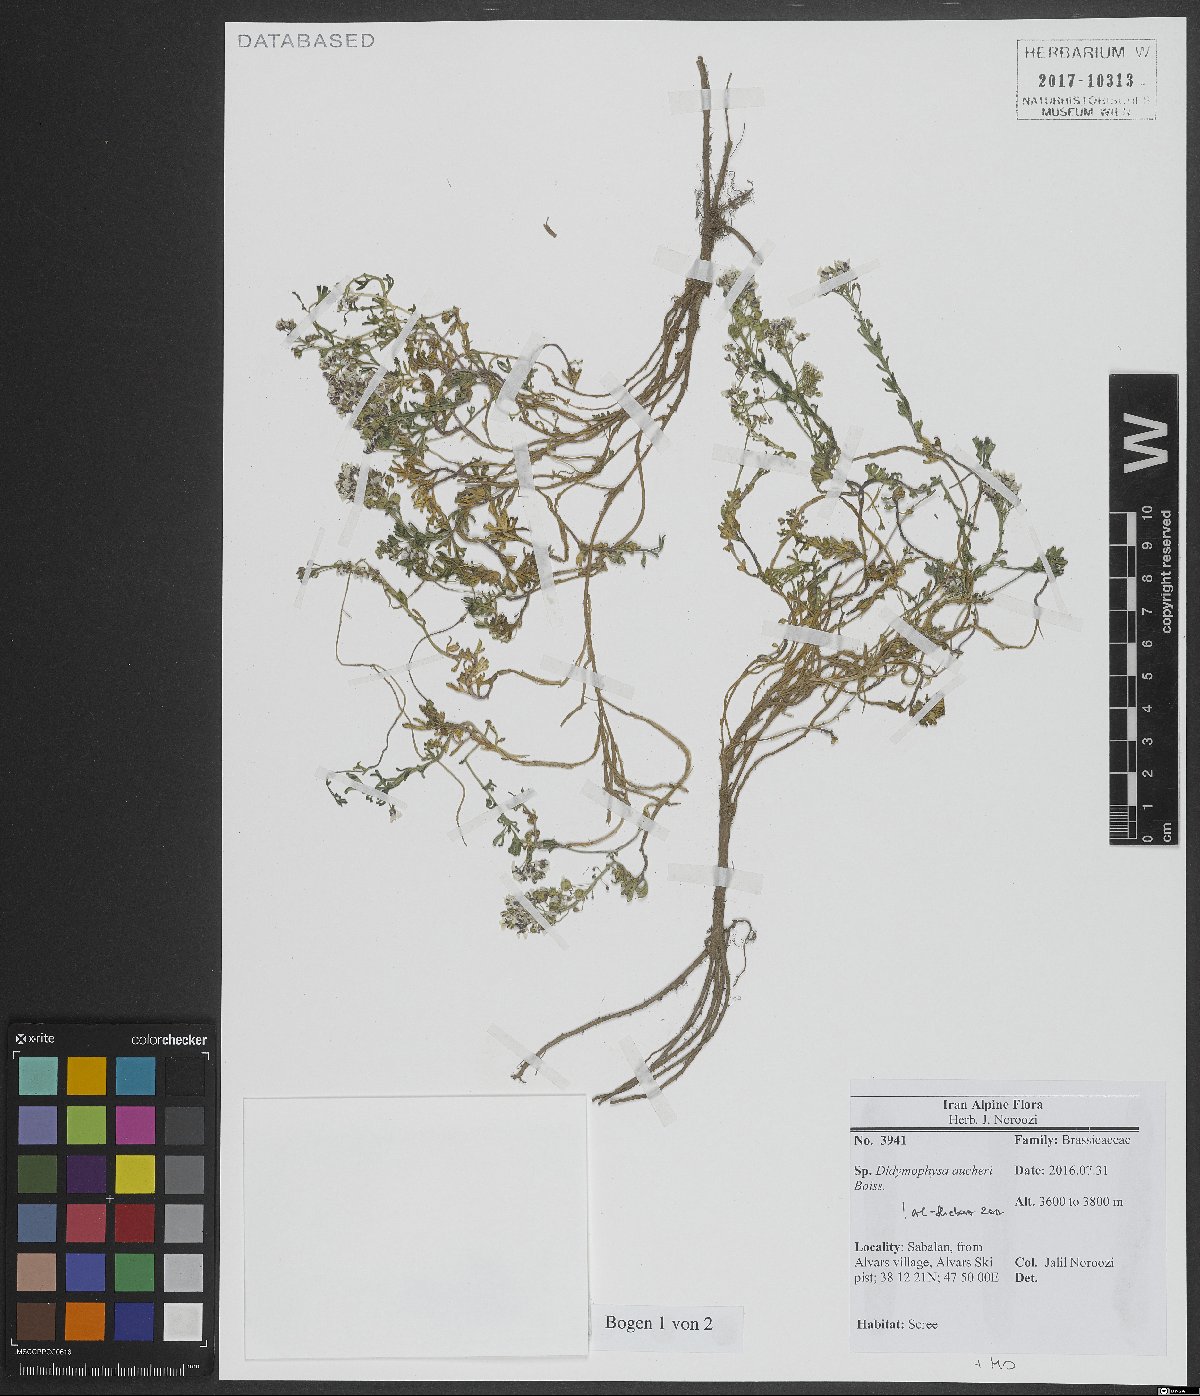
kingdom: Plantae
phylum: Tracheophyta
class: Magnoliopsida
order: Brassicales
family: Brassicaceae
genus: Didymophysa
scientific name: Didymophysa aucheri
